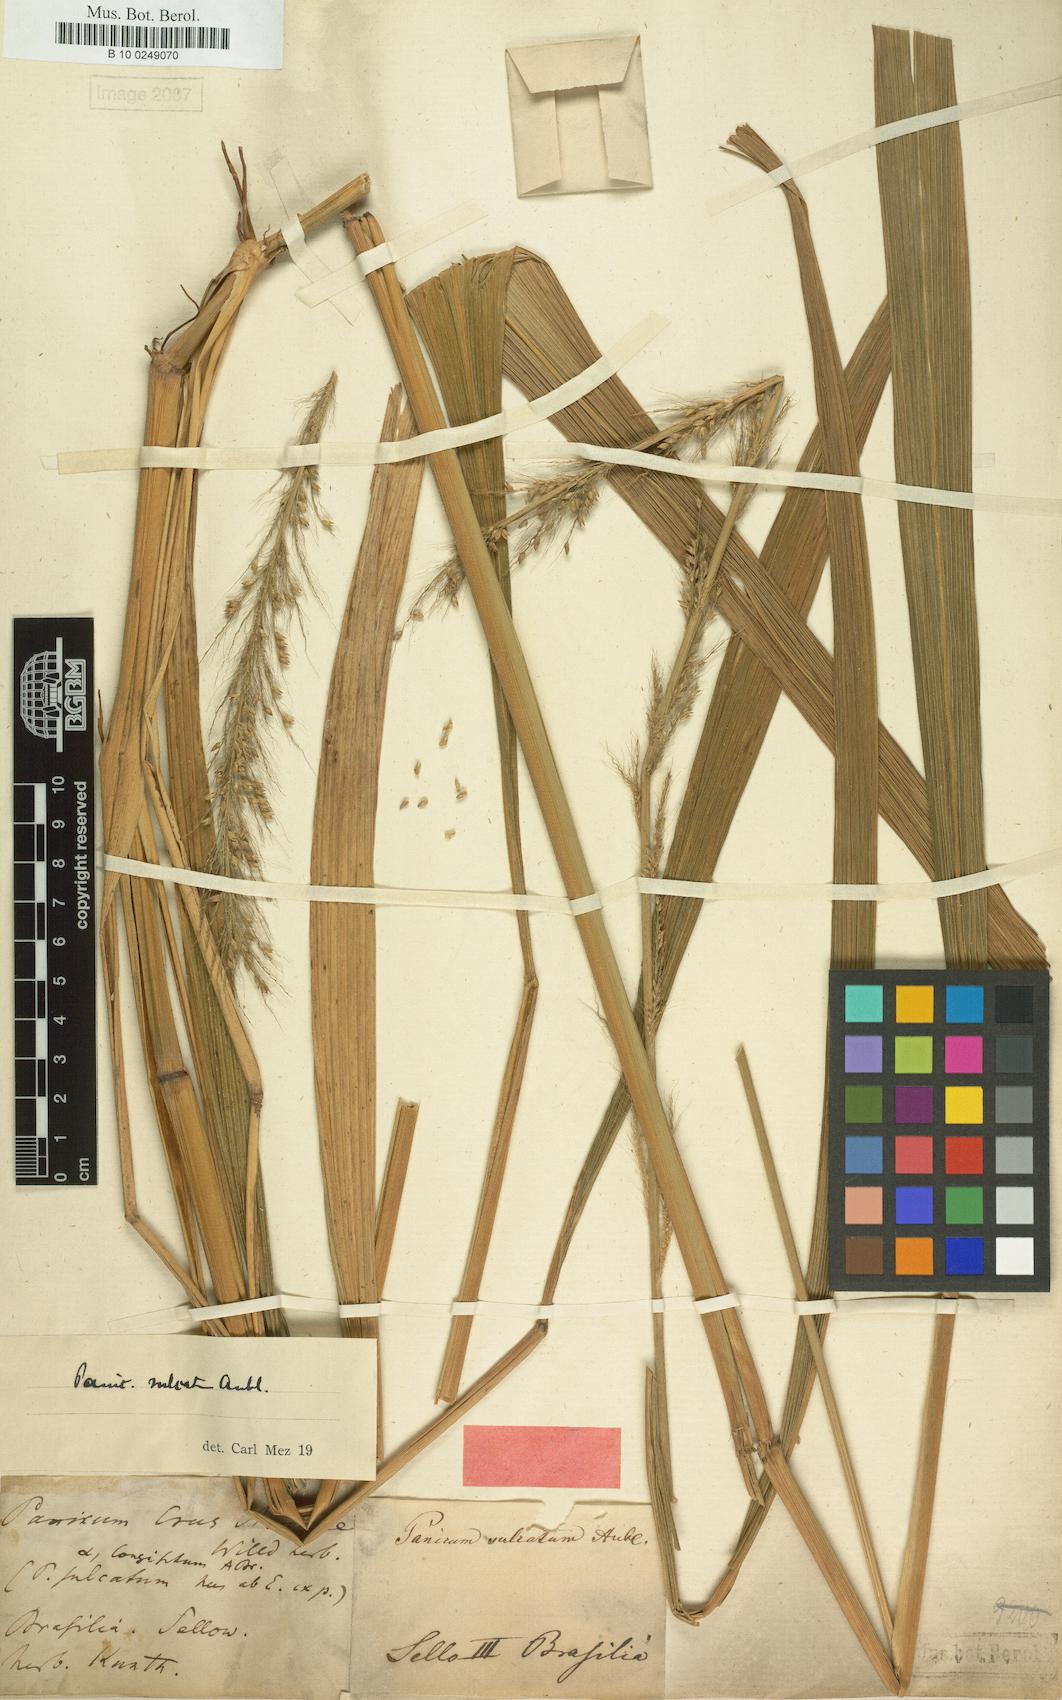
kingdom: Plantae
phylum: Tracheophyta
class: Liliopsida
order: Poales
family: Poaceae
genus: Setaria
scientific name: Setaria sulcata
